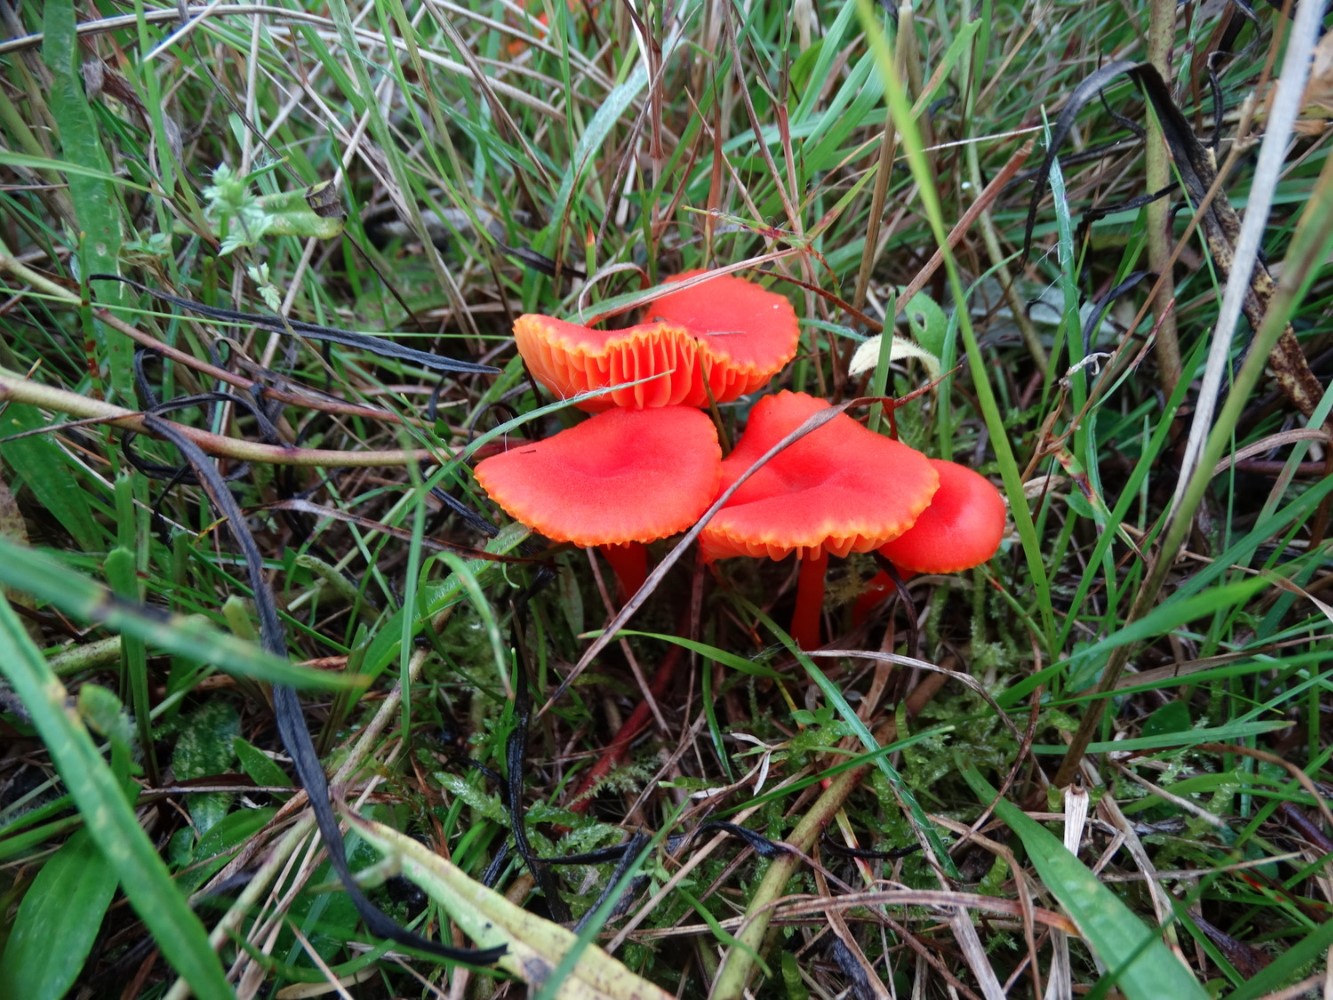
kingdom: Fungi
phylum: Basidiomycota
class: Agaricomycetes
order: Agaricales
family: Hygrophoraceae
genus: Hygrocybe
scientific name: Hygrocybe miniata
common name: mønje-vokshat
